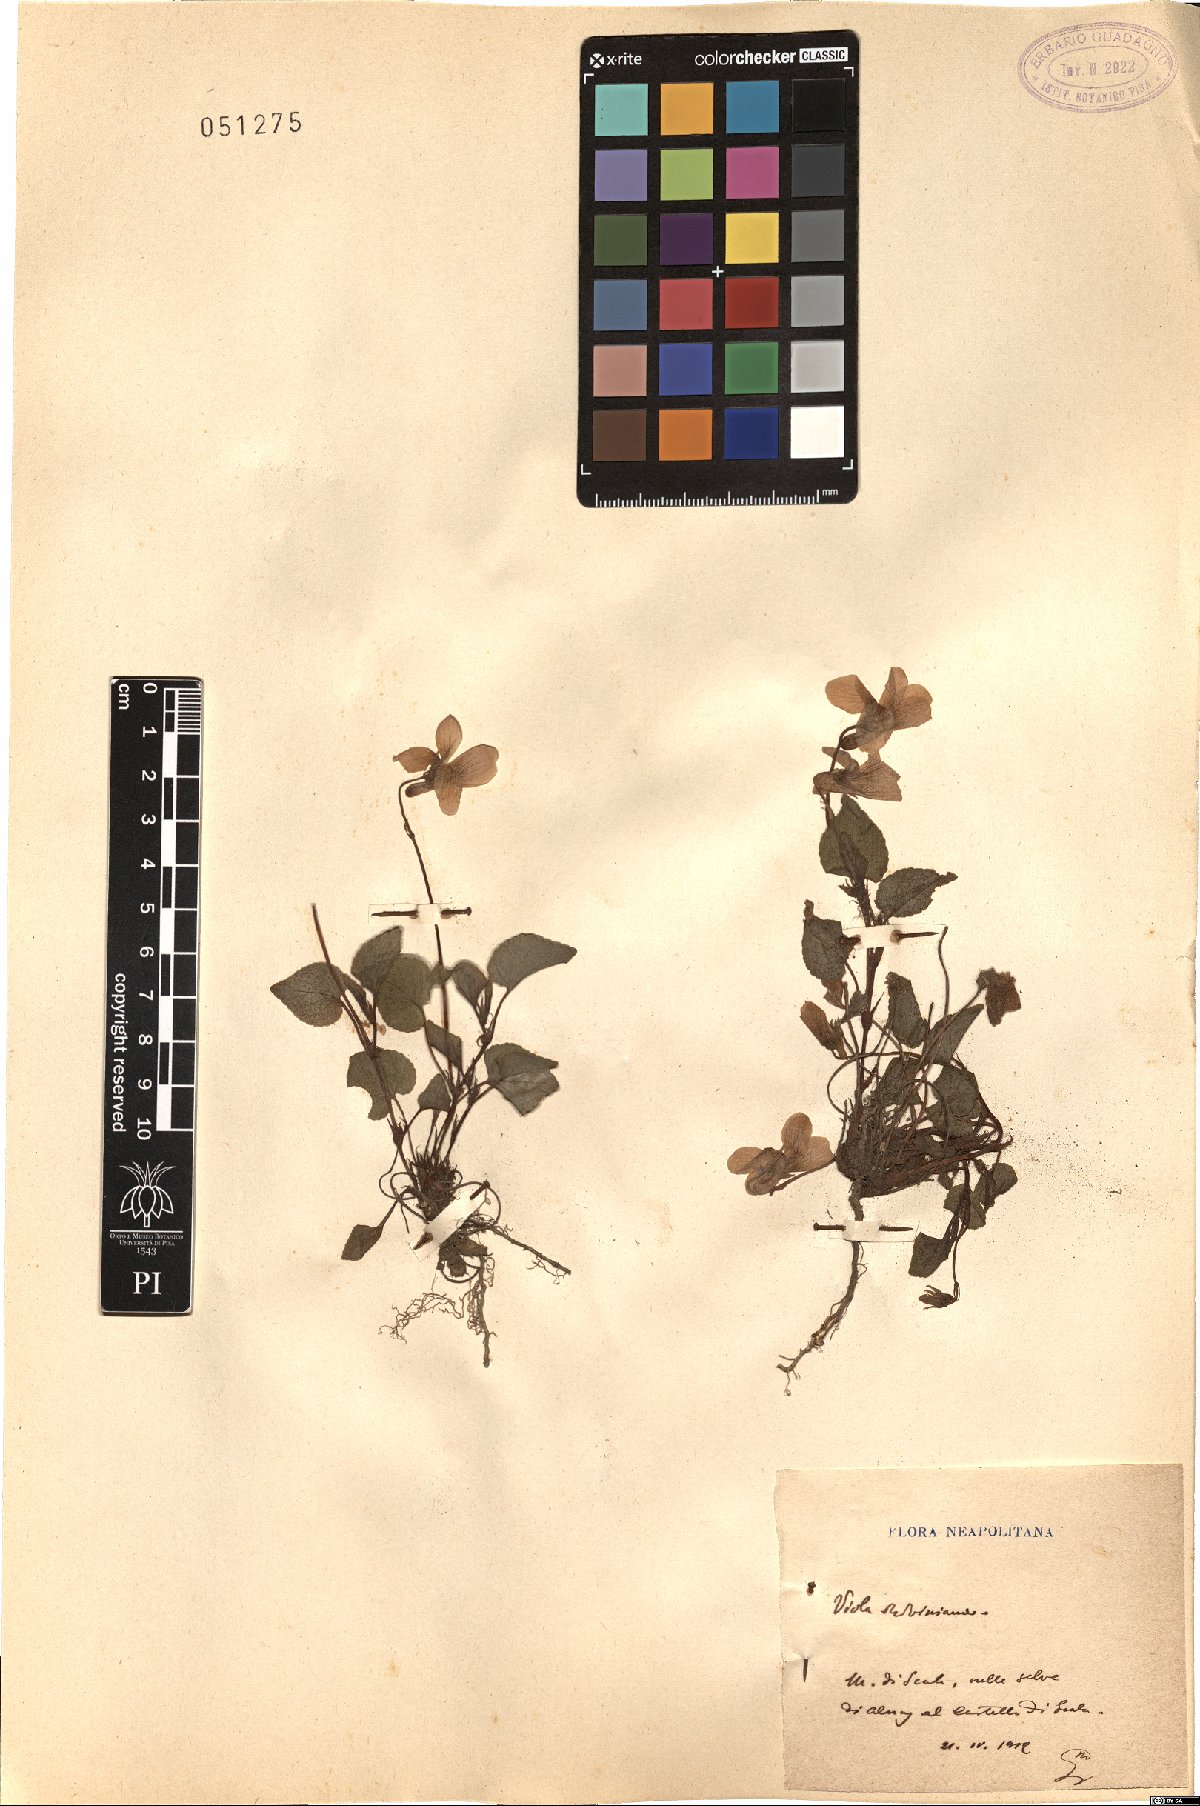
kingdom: Plantae
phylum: Tracheophyta
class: Magnoliopsida
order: Malpighiales
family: Violaceae
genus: Viola
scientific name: Viola riviniana
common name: Common dog-violet
